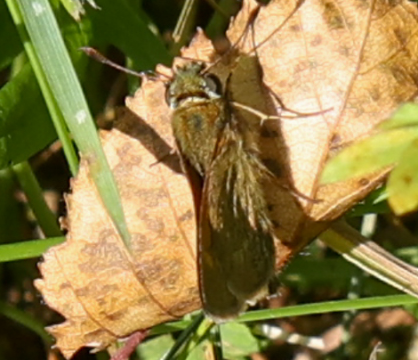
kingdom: Animalia
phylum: Arthropoda
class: Insecta
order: Lepidoptera
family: Hesperiidae
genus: Euphyes
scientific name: Euphyes
